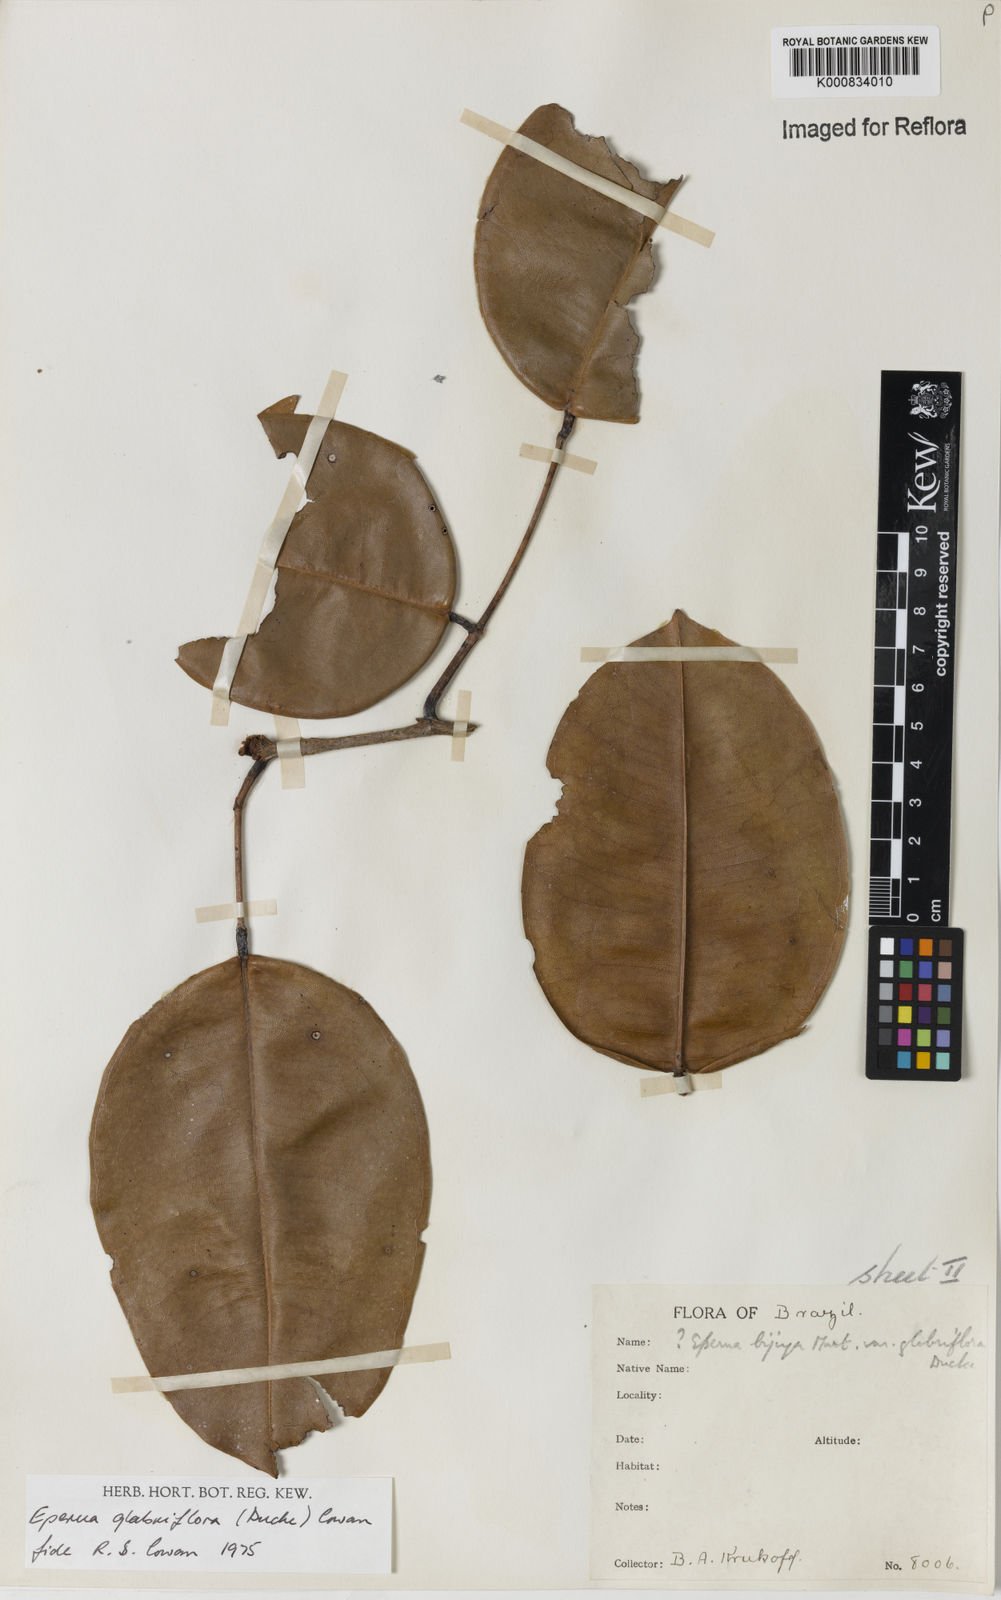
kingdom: Plantae
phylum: Tracheophyta
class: Magnoliopsida
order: Fabales
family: Fabaceae
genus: Eperua
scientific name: Eperua glabriflora
